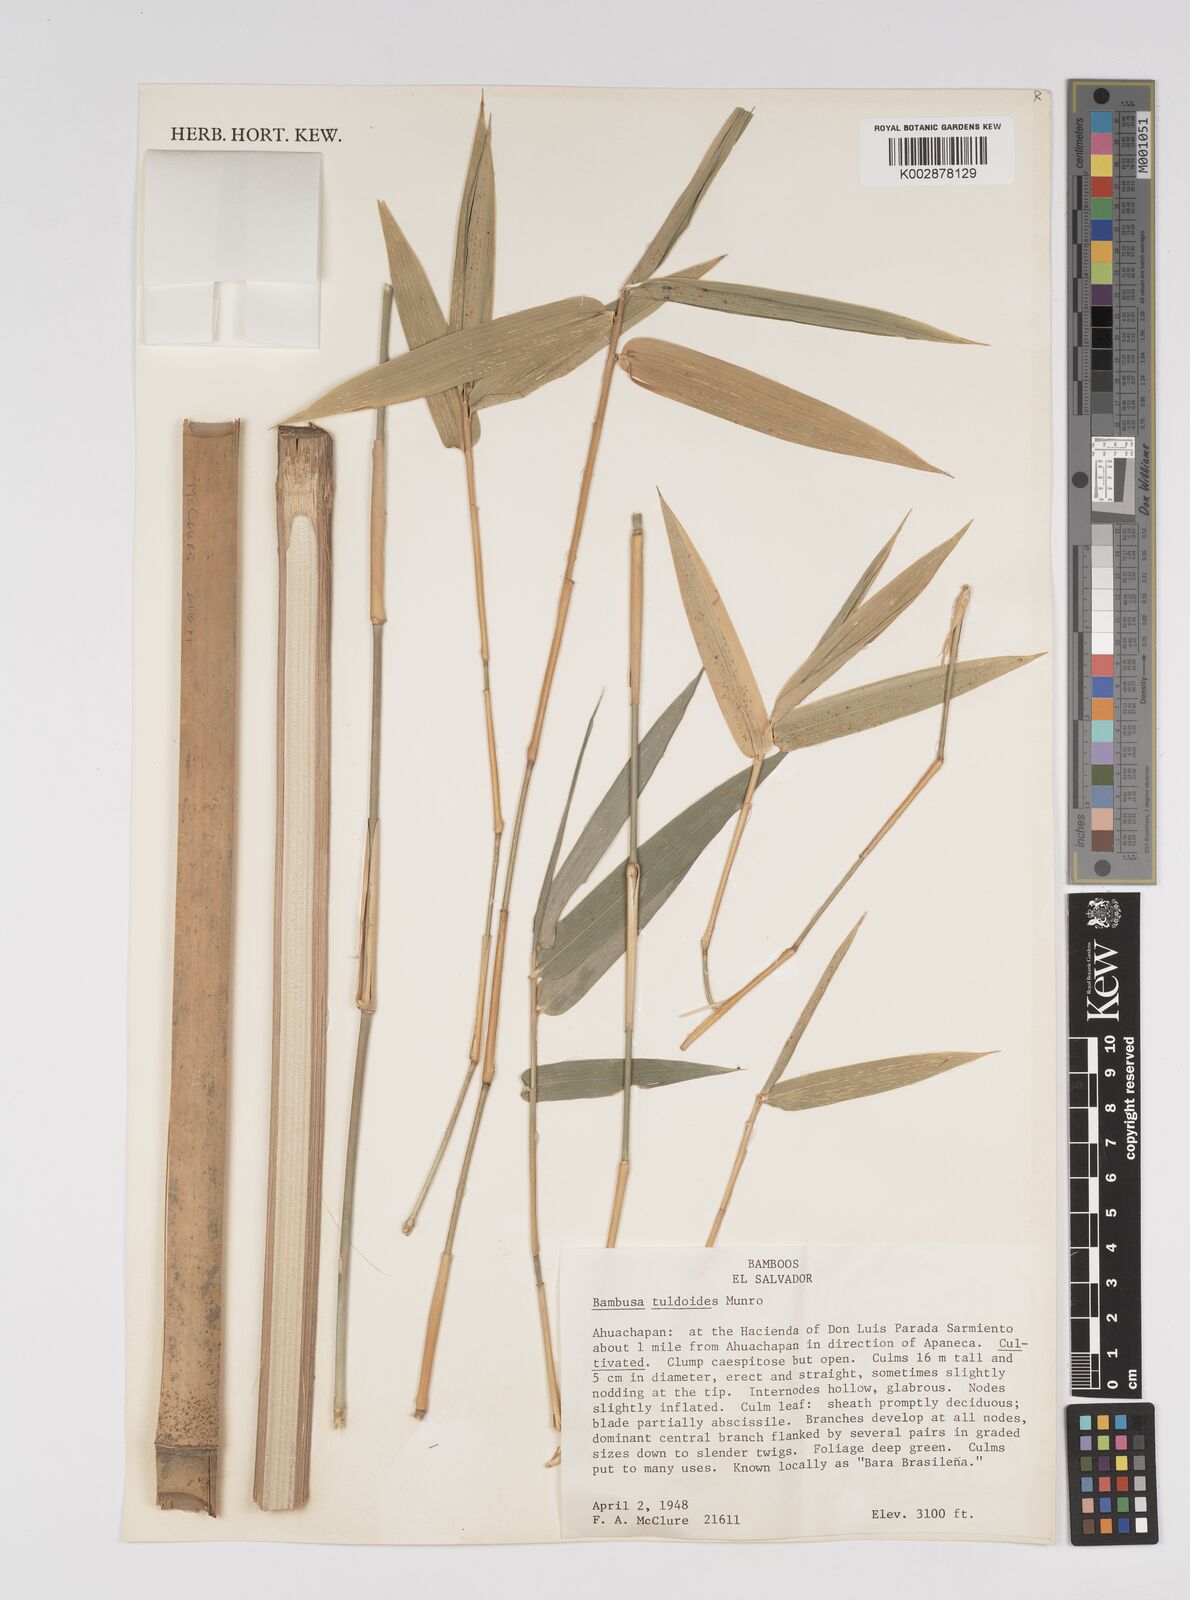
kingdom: Plantae
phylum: Tracheophyta
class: Liliopsida
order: Poales
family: Poaceae
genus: Bambusa
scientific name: Bambusa tuldoides
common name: Verdant bamboo
